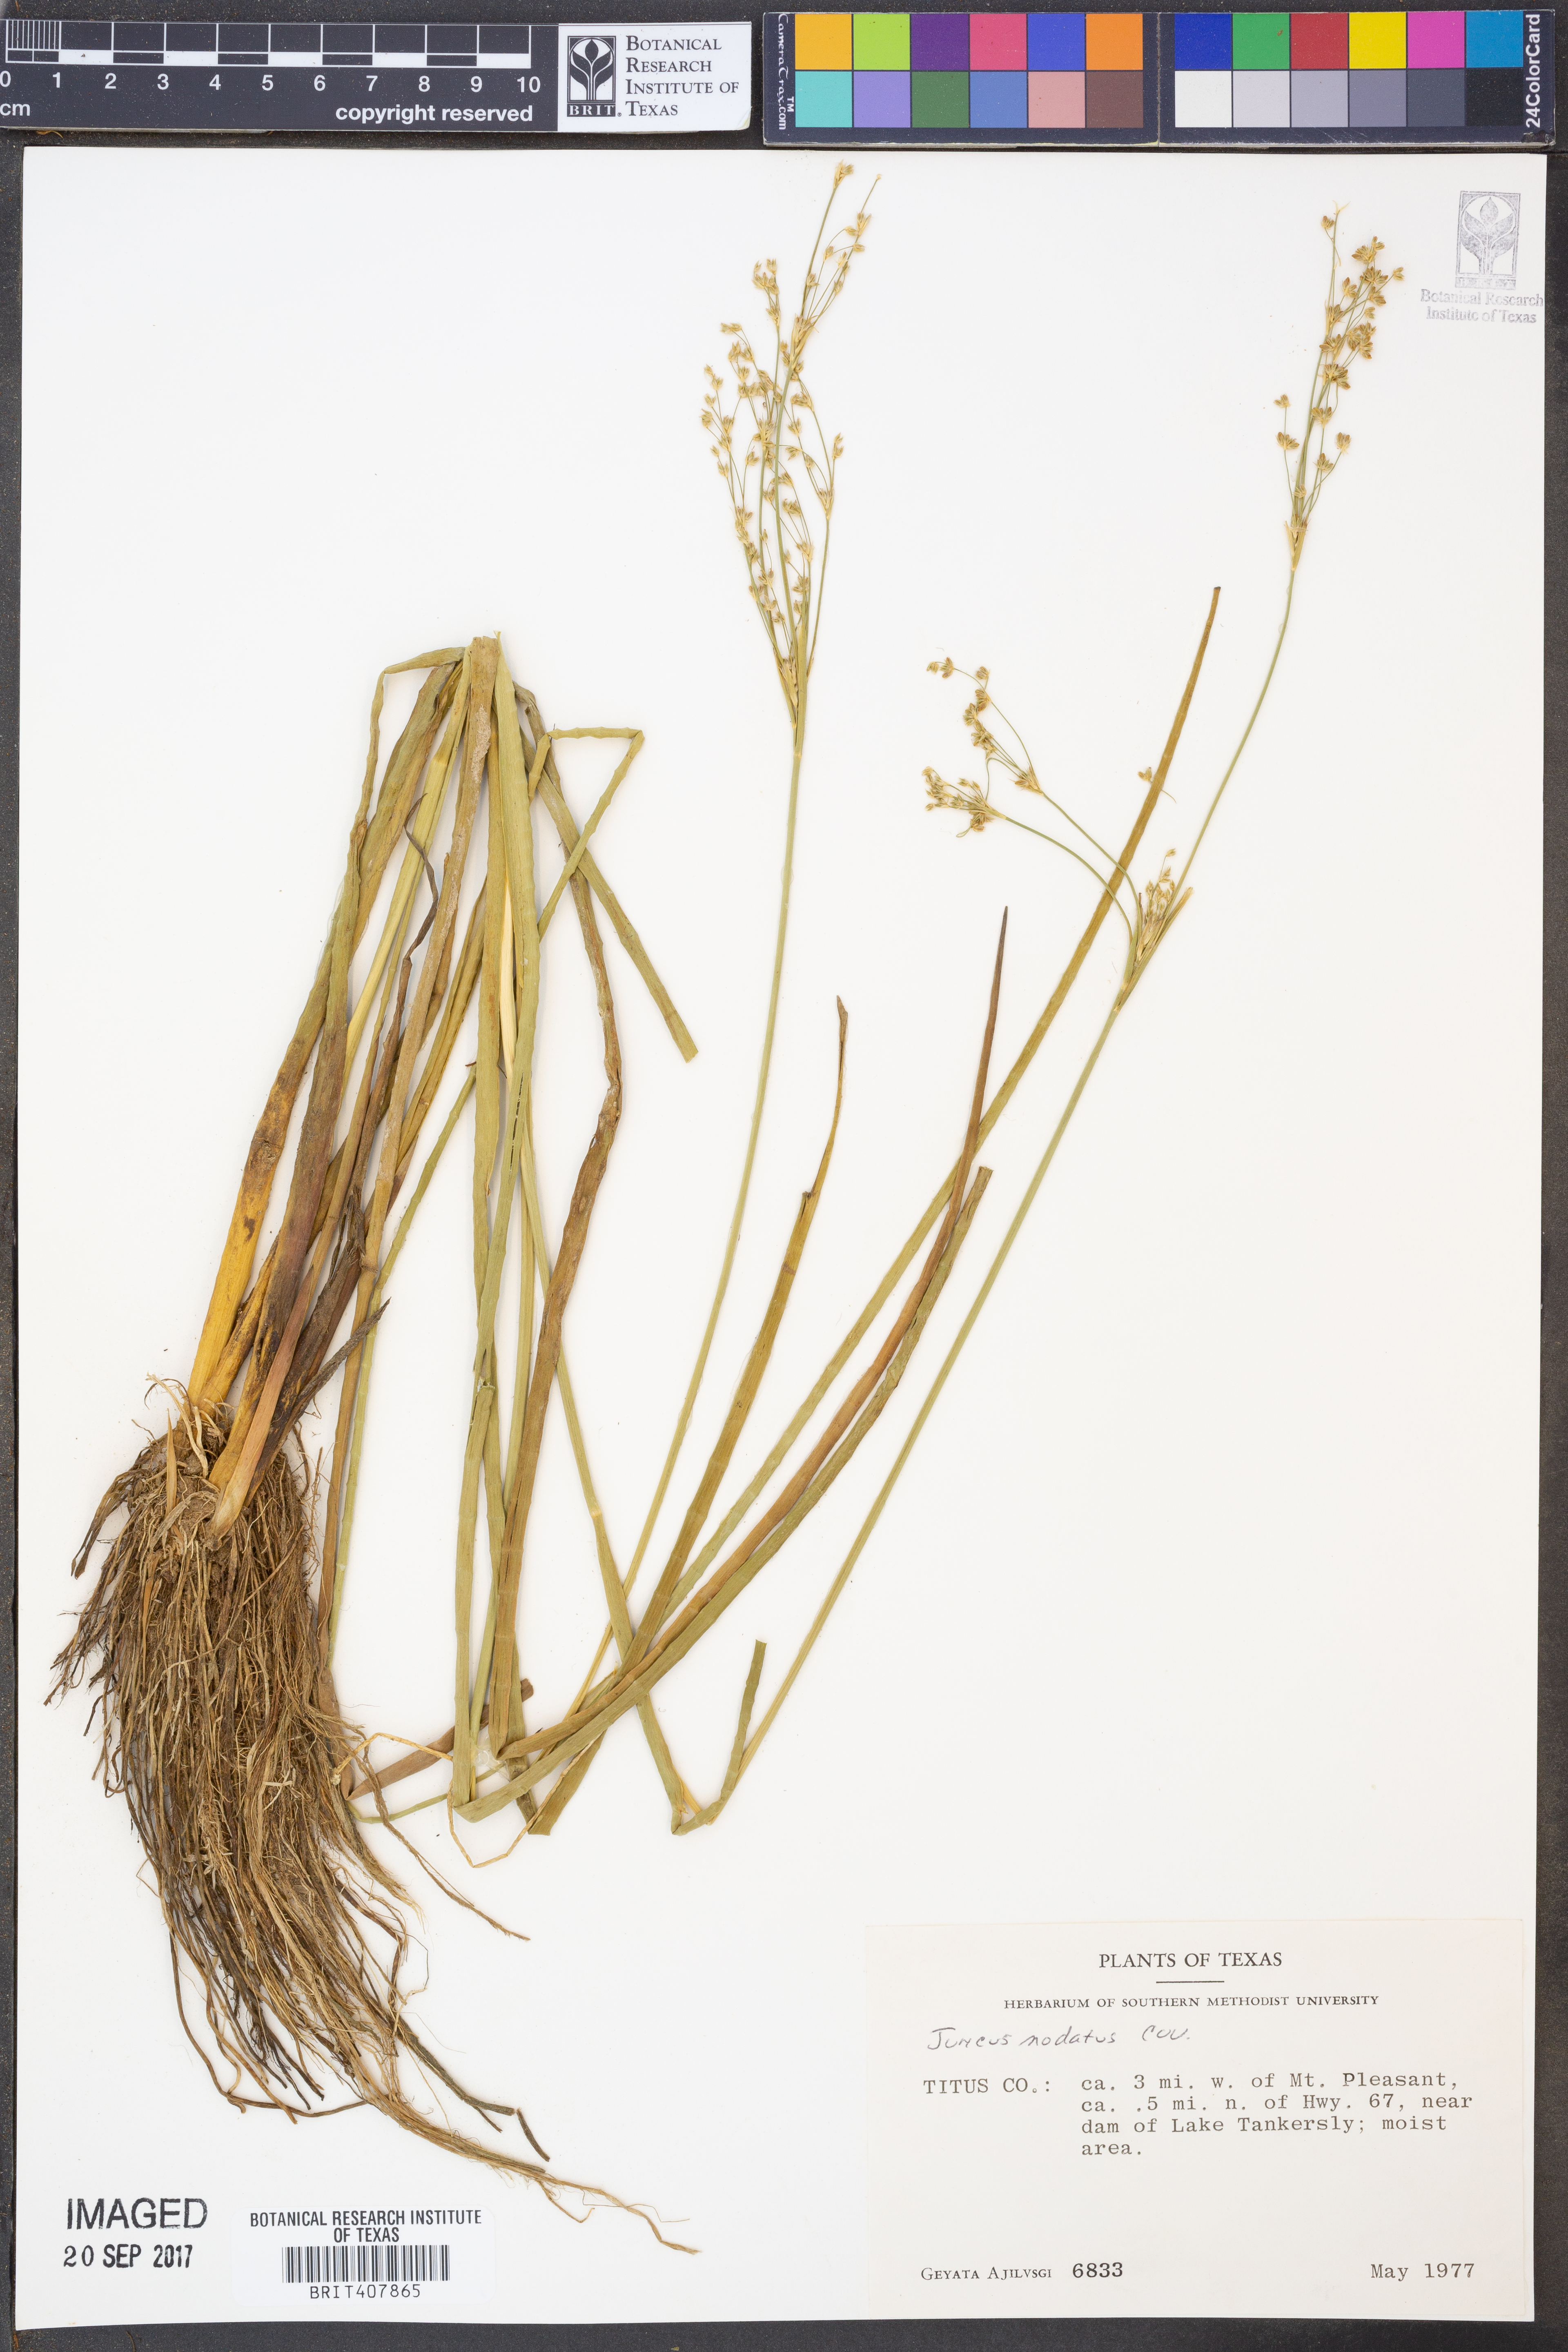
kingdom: Plantae
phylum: Tracheophyta
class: Liliopsida
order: Poales
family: Juncaceae
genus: Juncus
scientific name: Juncus nodatus
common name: Stout rush
